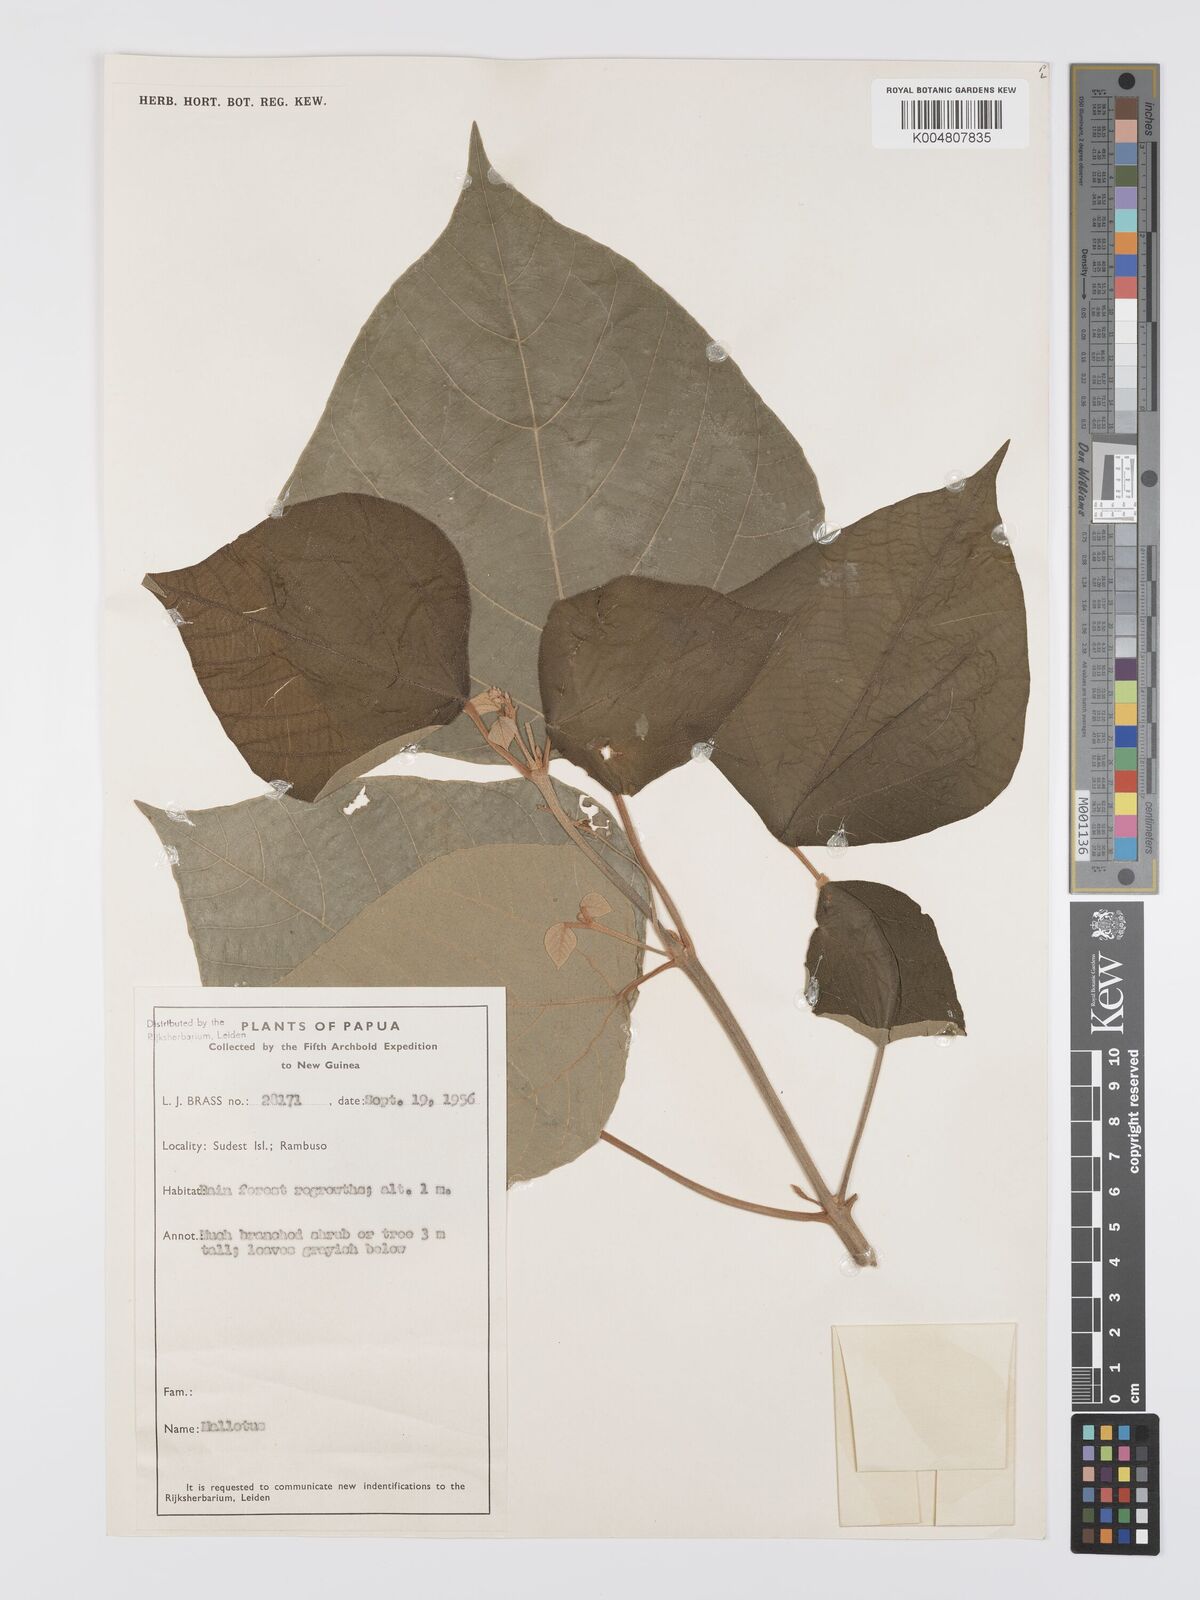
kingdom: Plantae
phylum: Tracheophyta
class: Magnoliopsida
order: Malpighiales
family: Euphorbiaceae
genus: Mallotus
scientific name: Mallotus tiliifolius
